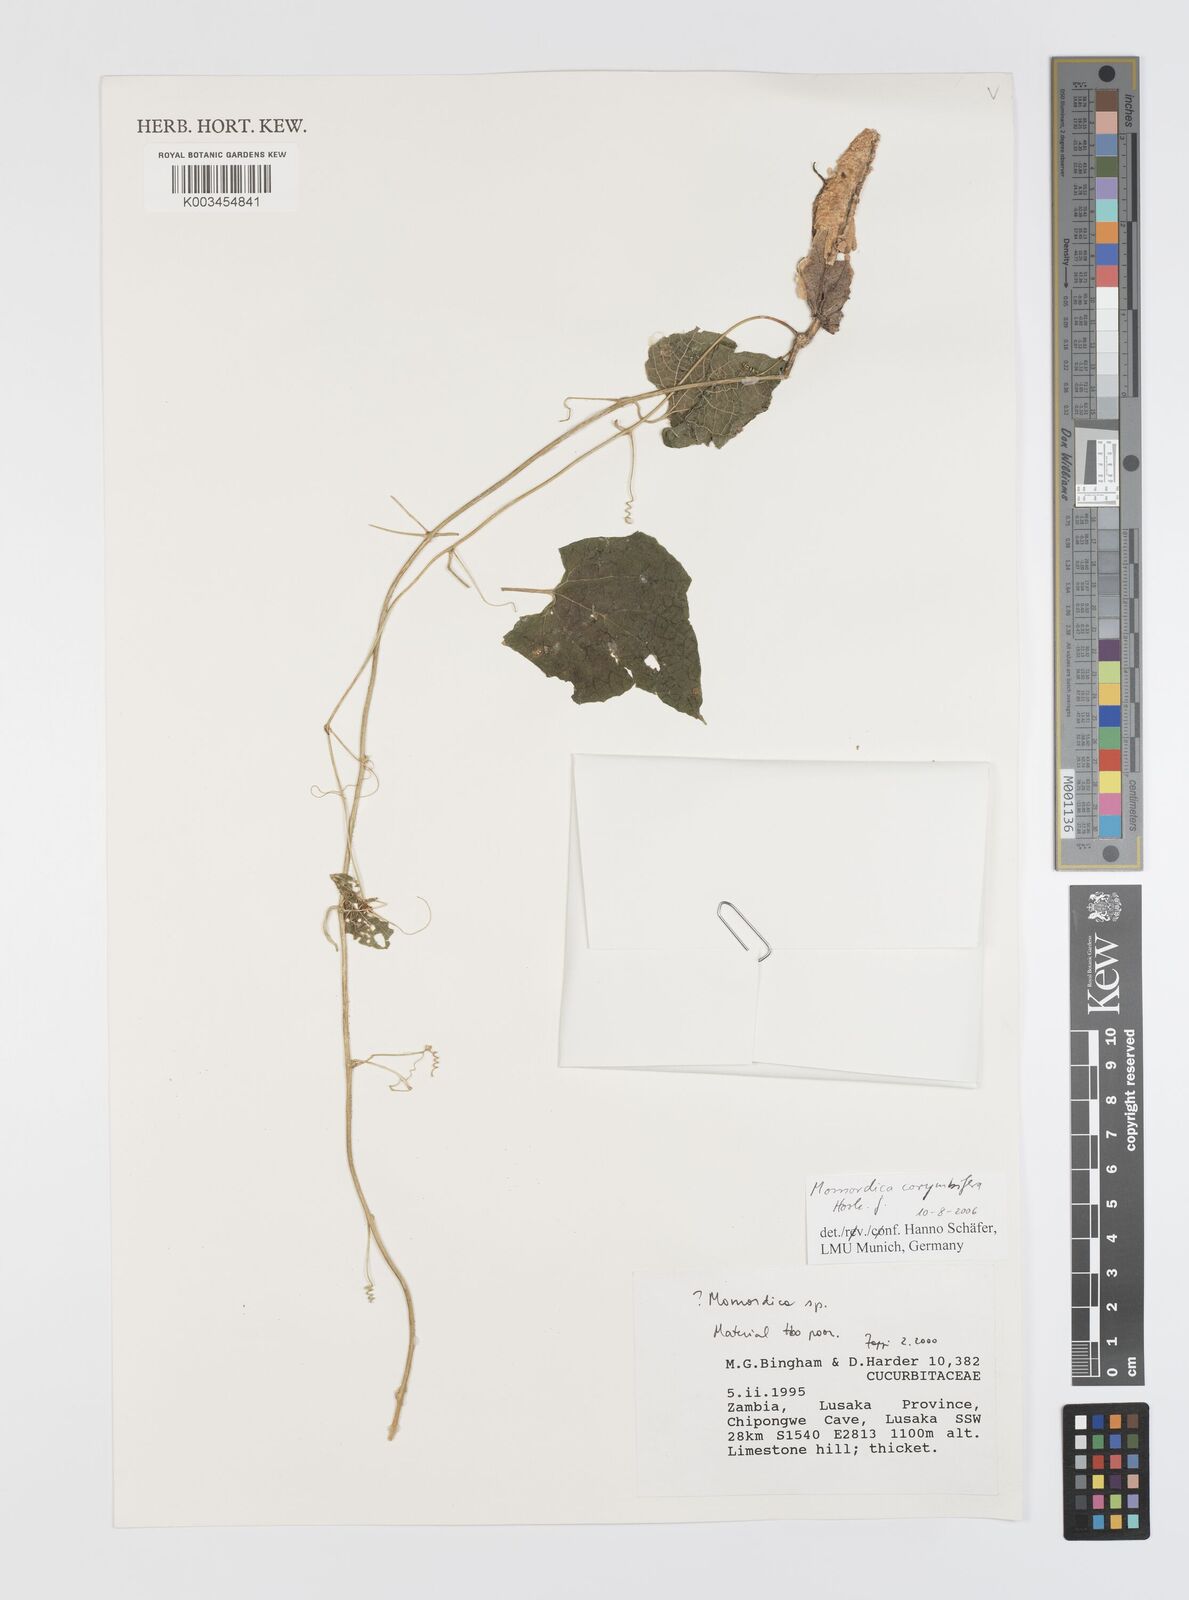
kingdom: Plantae
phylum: Tracheophyta
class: Magnoliopsida
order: Cucurbitales
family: Cucurbitaceae
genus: Momordica
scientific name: Momordica corymbifera
